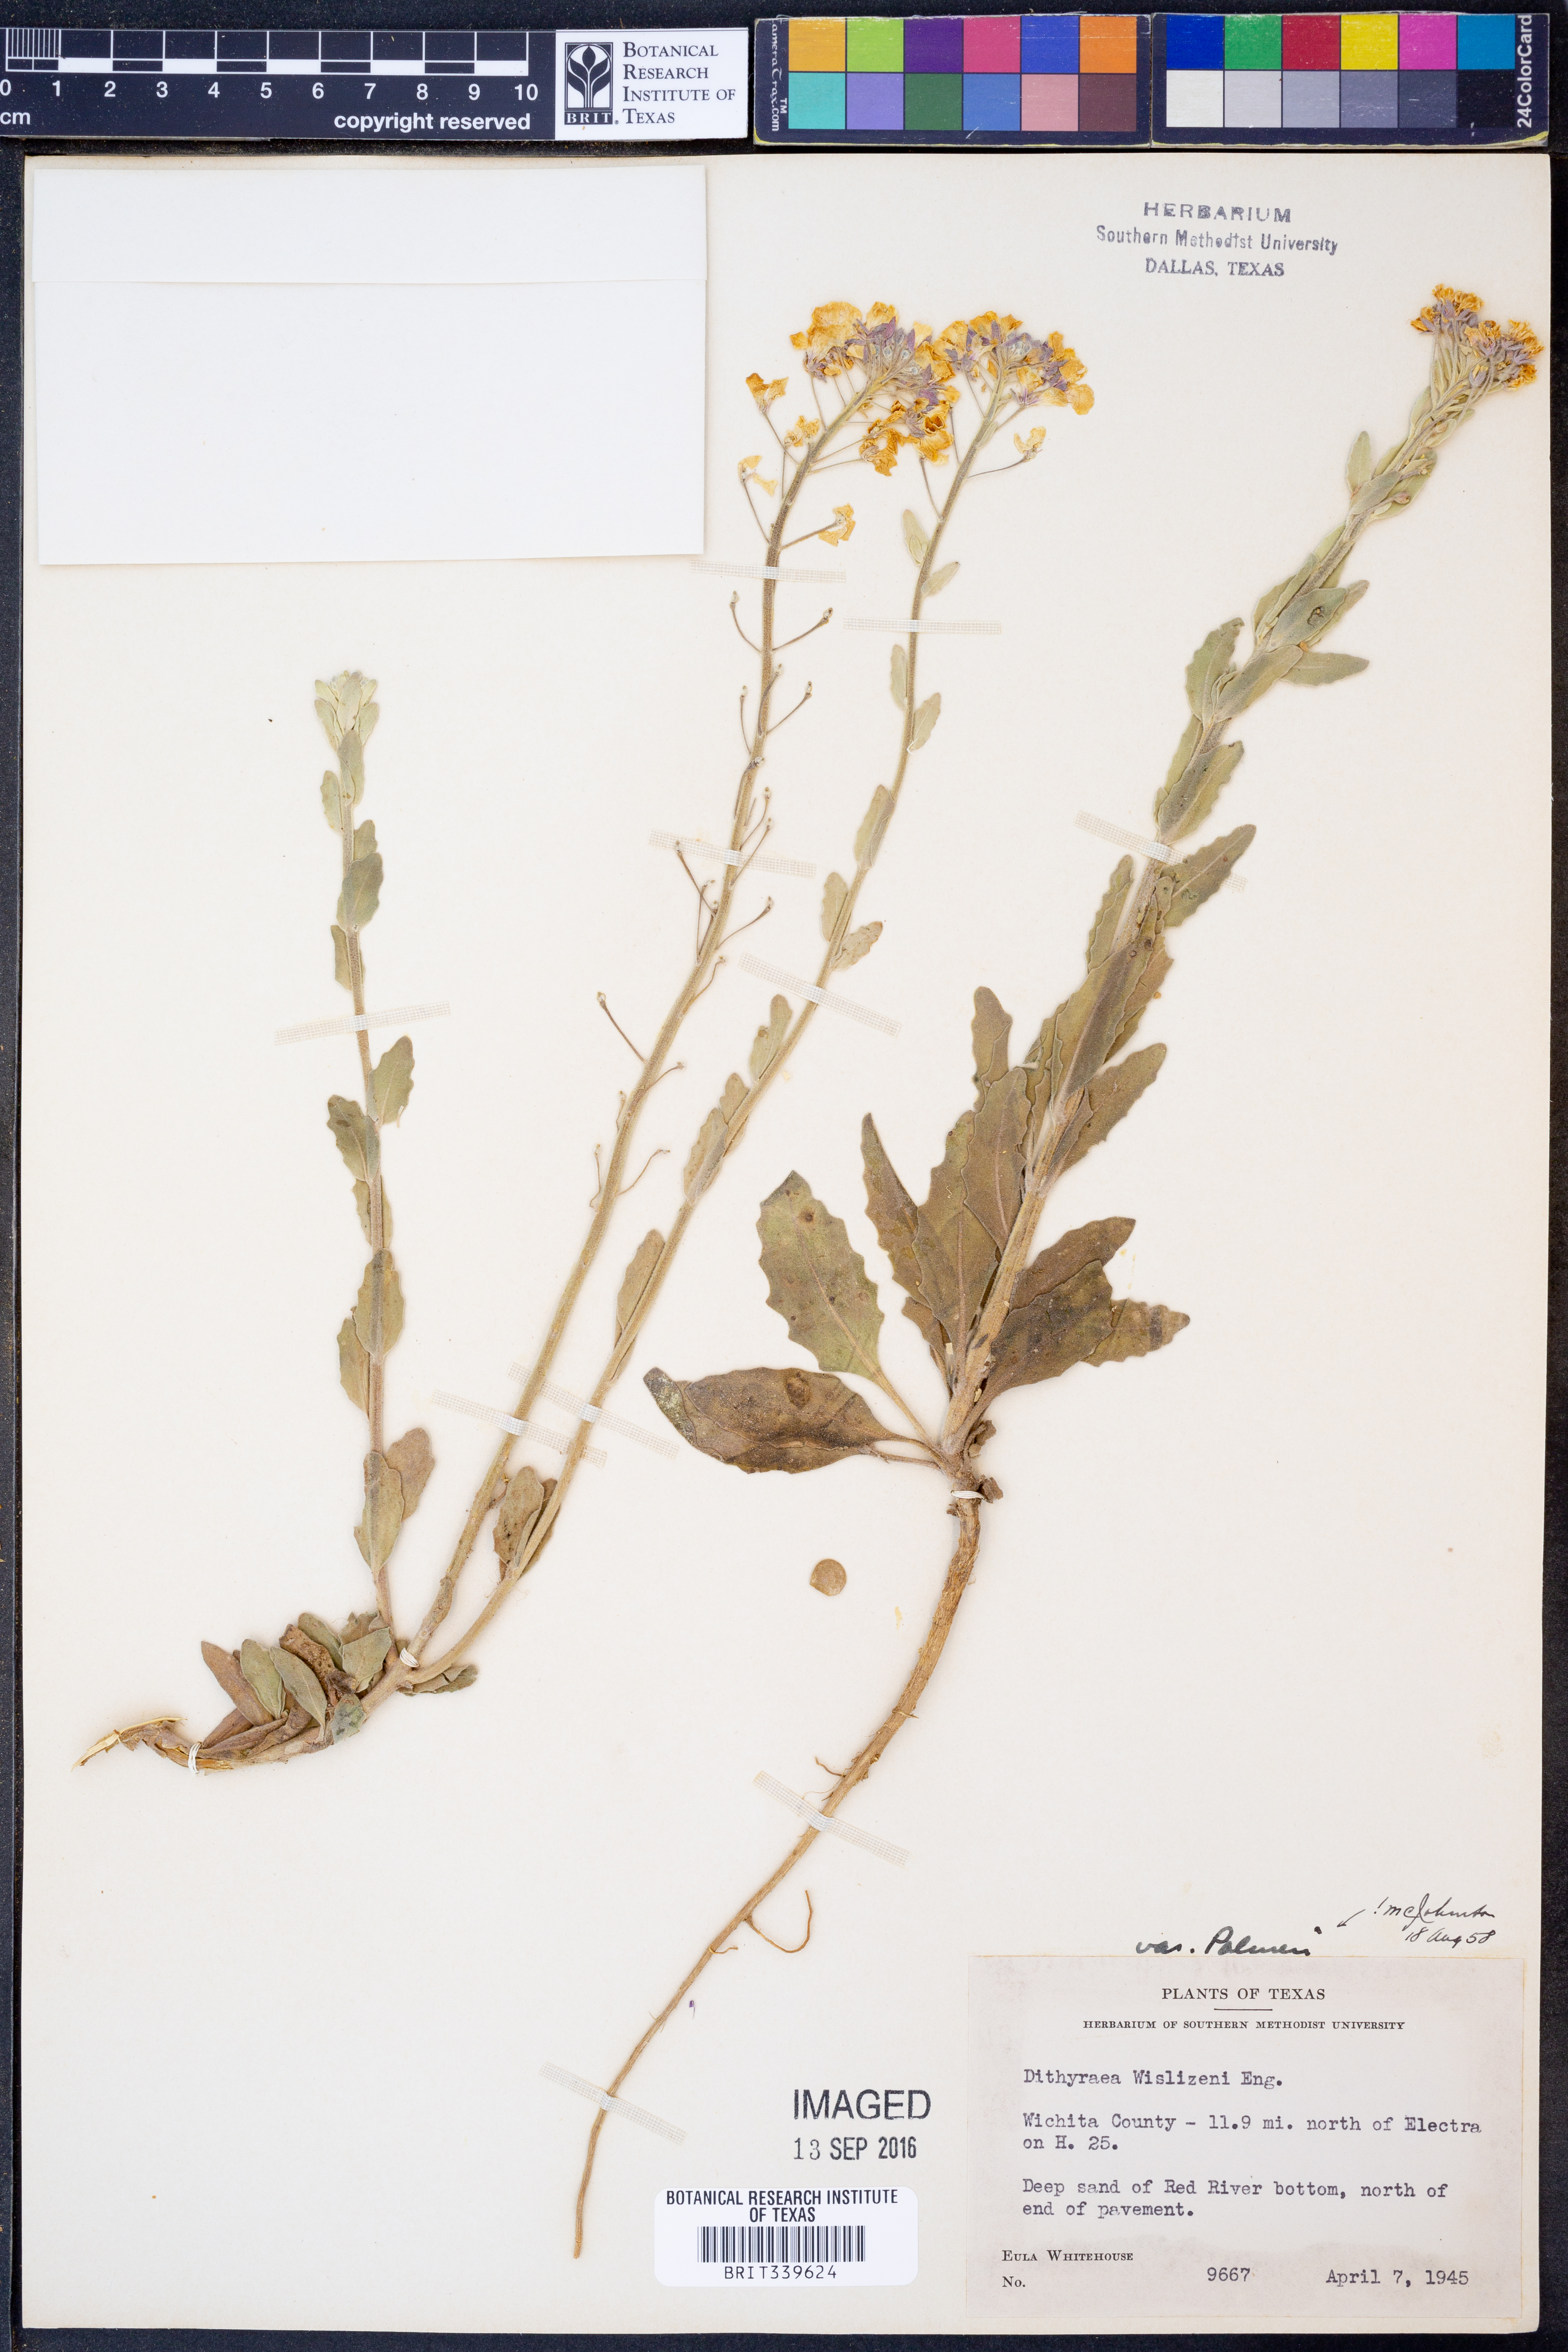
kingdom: Plantae
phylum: Tracheophyta
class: Magnoliopsida
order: Brassicales
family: Brassicaceae
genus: Dimorphocarpa
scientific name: Dimorphocarpa candicans
